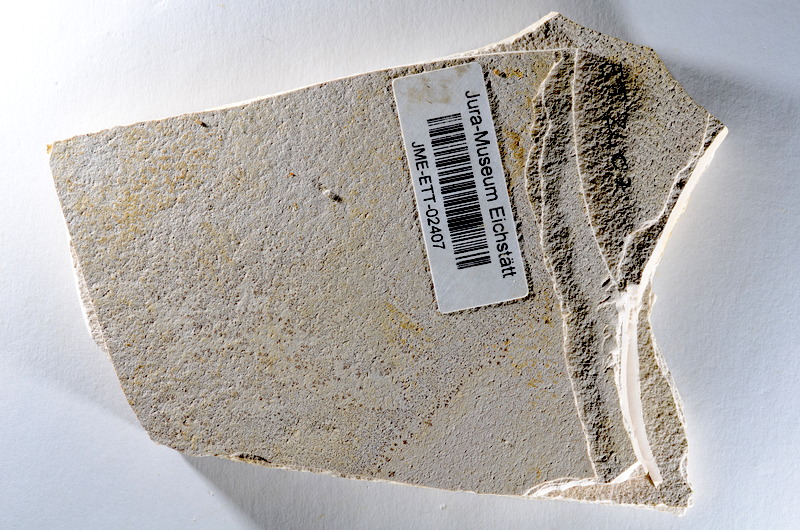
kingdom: Animalia
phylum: Chordata
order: Salmoniformes
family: Orthogonikleithridae
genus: Orthogonikleithrus
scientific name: Orthogonikleithrus hoelli
